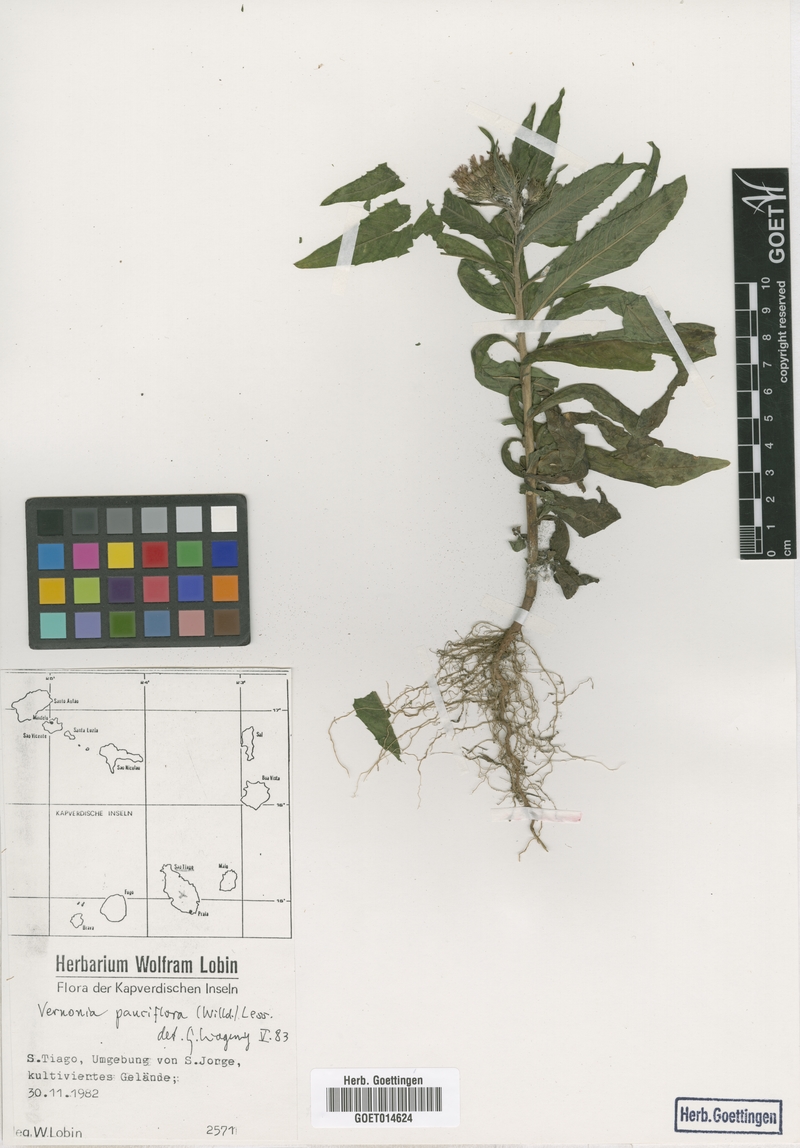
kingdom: Plantae
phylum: Tracheophyta
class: Magnoliopsida
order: Asterales
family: Asteraceae
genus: Vernonia
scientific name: Vernonia galamensis
